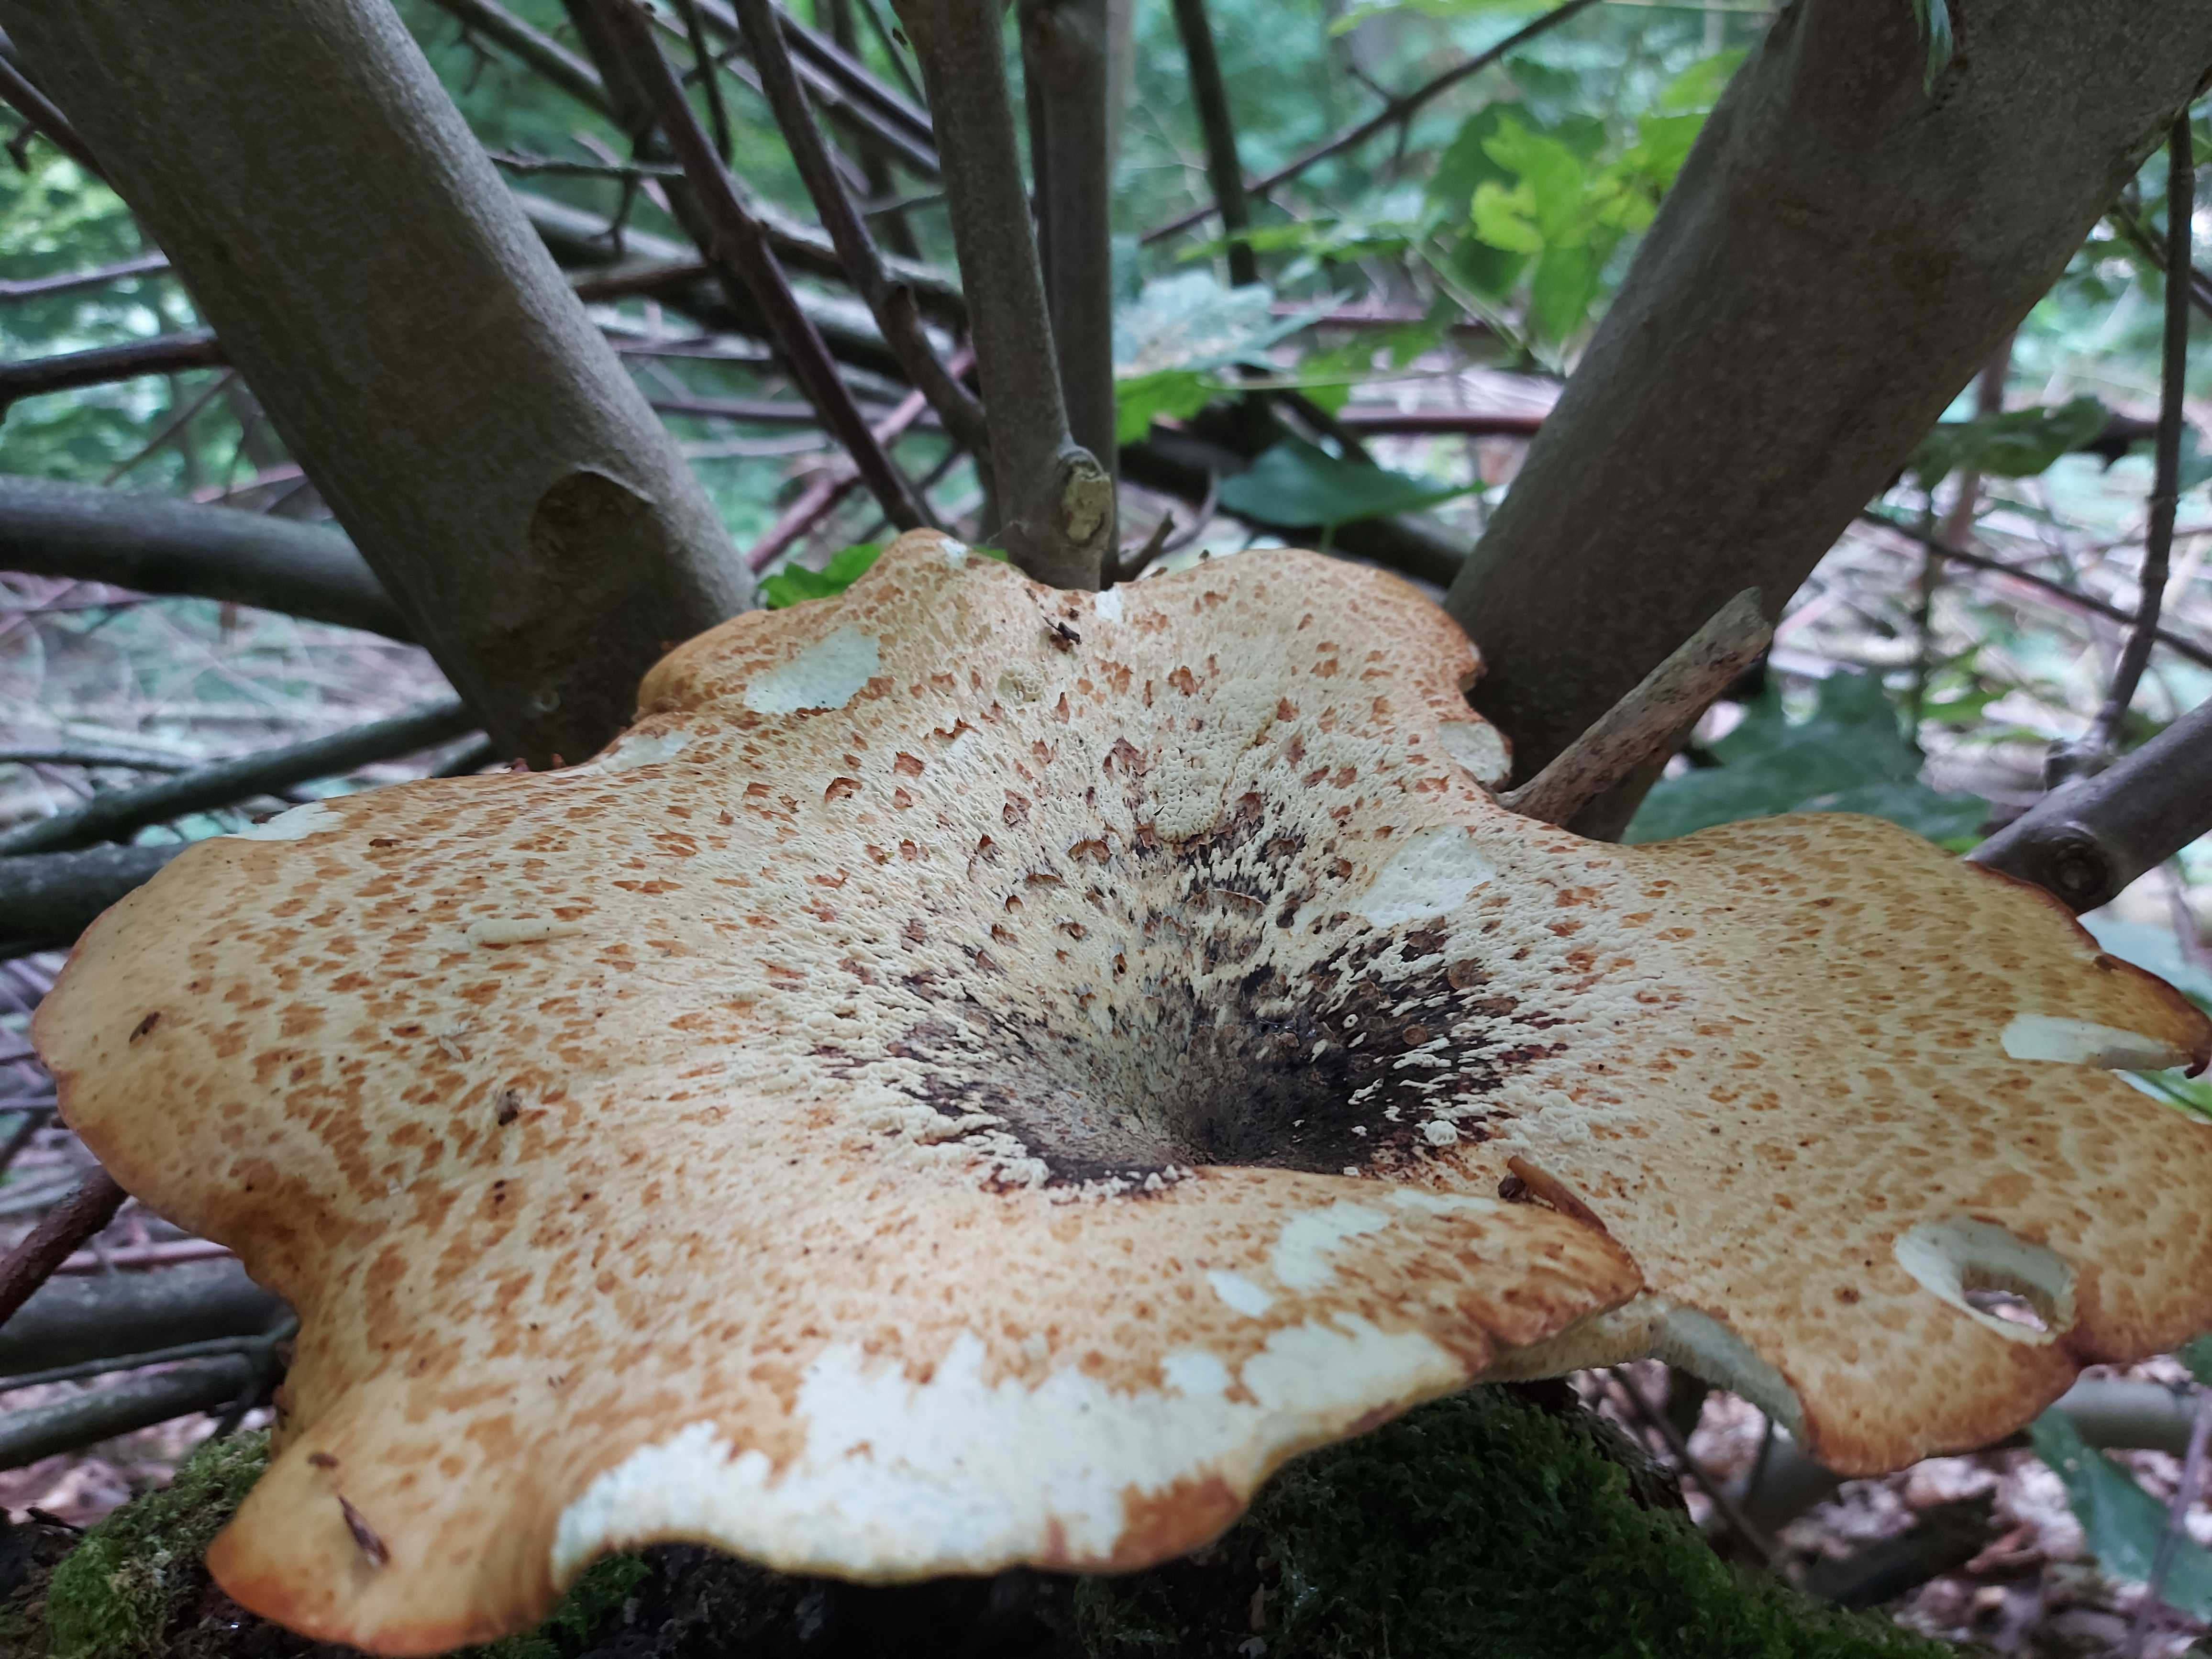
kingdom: Fungi
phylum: Basidiomycota
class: Agaricomycetes
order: Polyporales
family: Polyporaceae
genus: Cerioporus
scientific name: Cerioporus squamosus
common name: skællet stilkporesvamp
